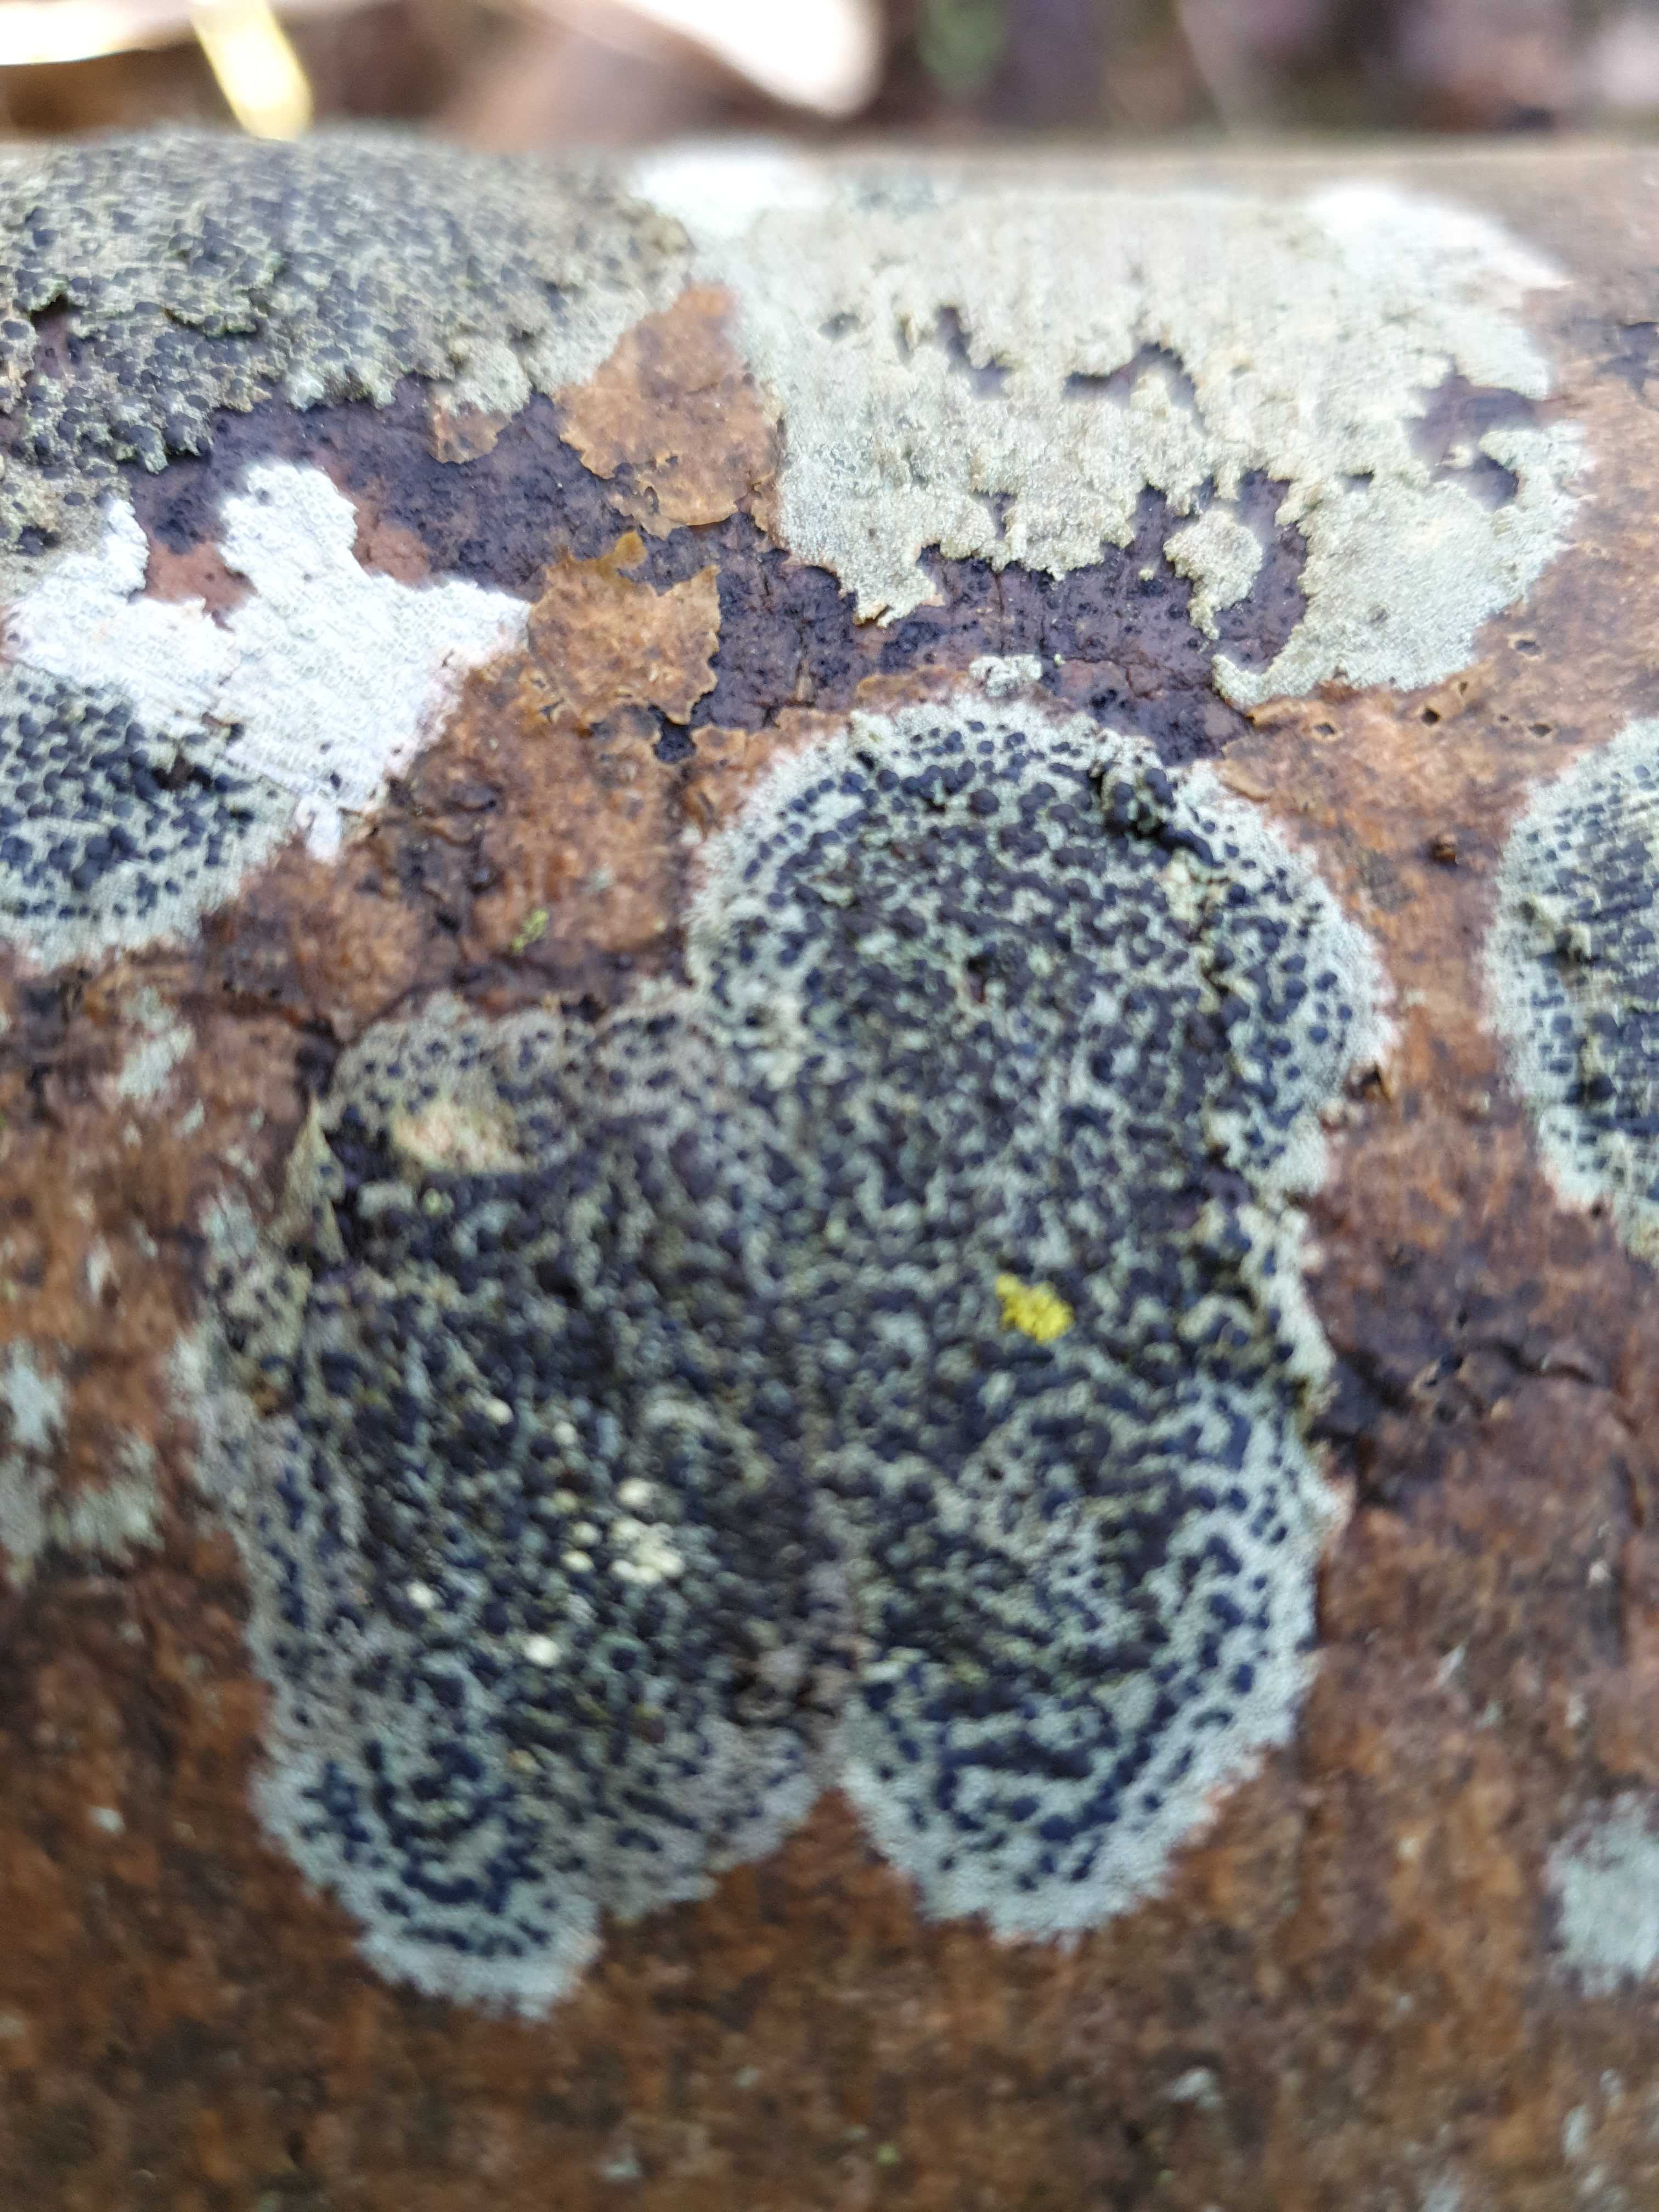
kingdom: Fungi
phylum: Ascomycota
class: Lecanoromycetes
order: Lecanorales
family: Lecanoraceae
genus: Lecidella
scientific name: Lecidella elaeochroma
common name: grågrøn skivelav
